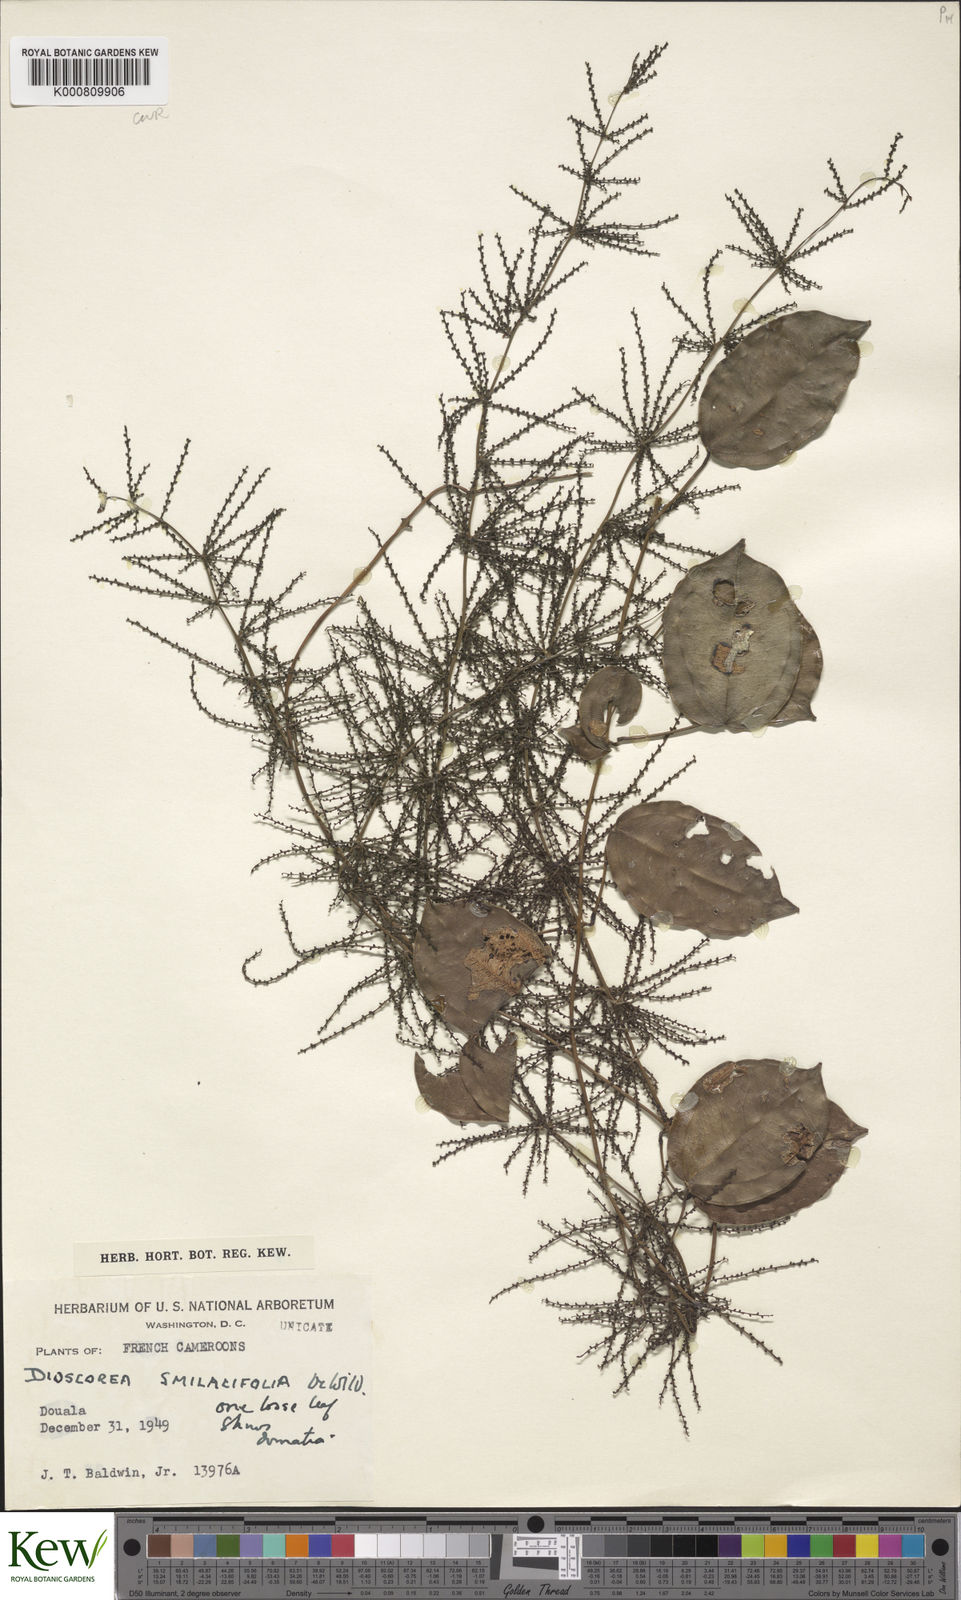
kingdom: Plantae
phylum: Tracheophyta
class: Liliopsida
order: Dioscoreales
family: Dioscoreaceae
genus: Dioscorea
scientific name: Dioscorea smilacifolia
